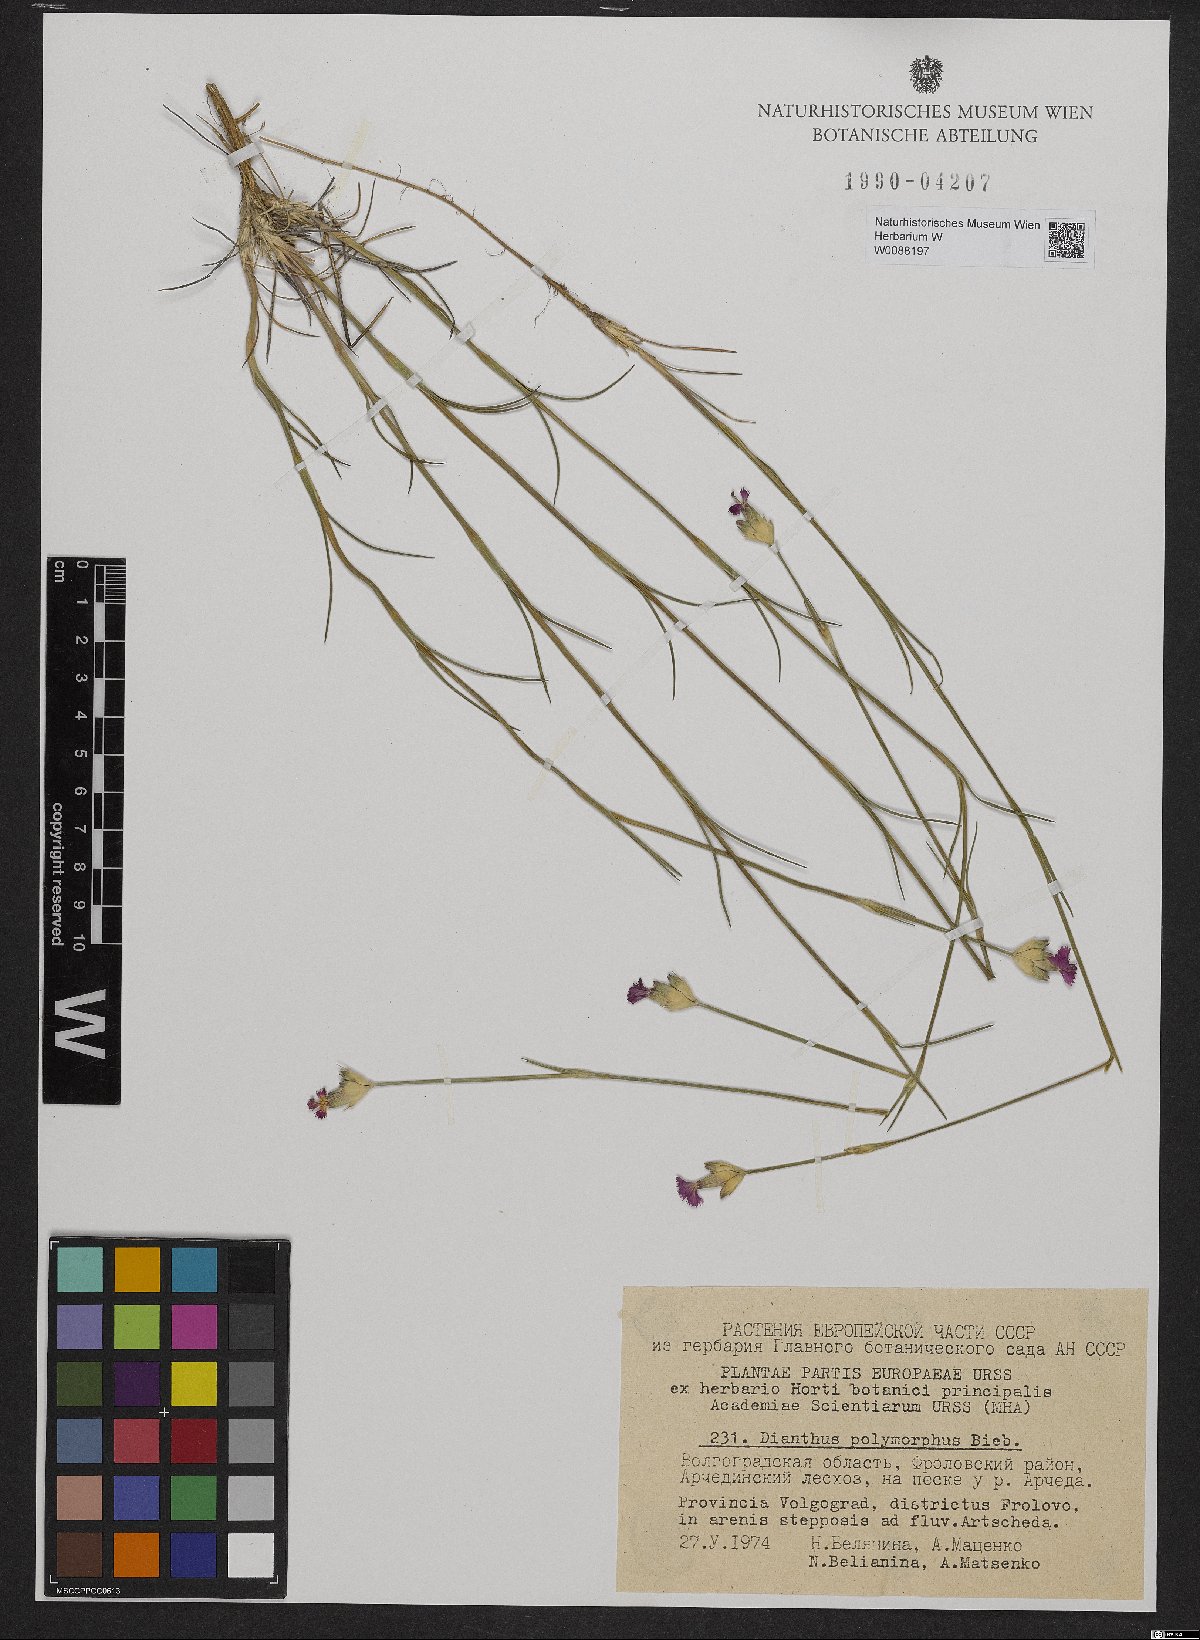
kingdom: Plantae
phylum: Tracheophyta
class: Magnoliopsida
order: Caryophyllales
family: Caryophyllaceae
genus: Dianthus
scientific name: Dianthus polymorphus
